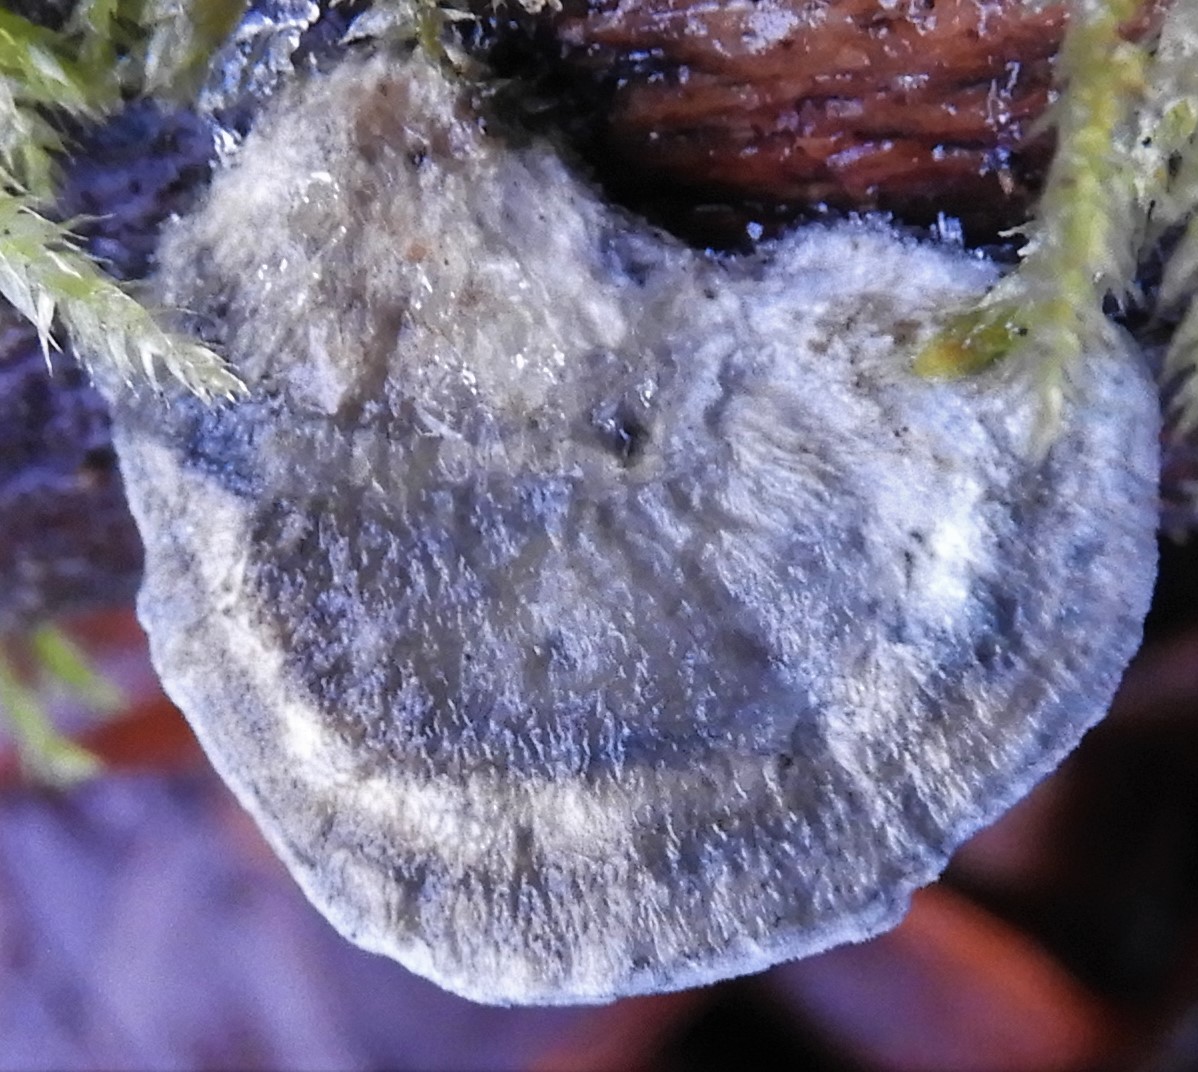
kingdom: Fungi
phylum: Basidiomycota
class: Agaricomycetes
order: Polyporales
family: Polyporaceae
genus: Cyanosporus
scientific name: Cyanosporus alni
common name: blegblå kødporesvamp
